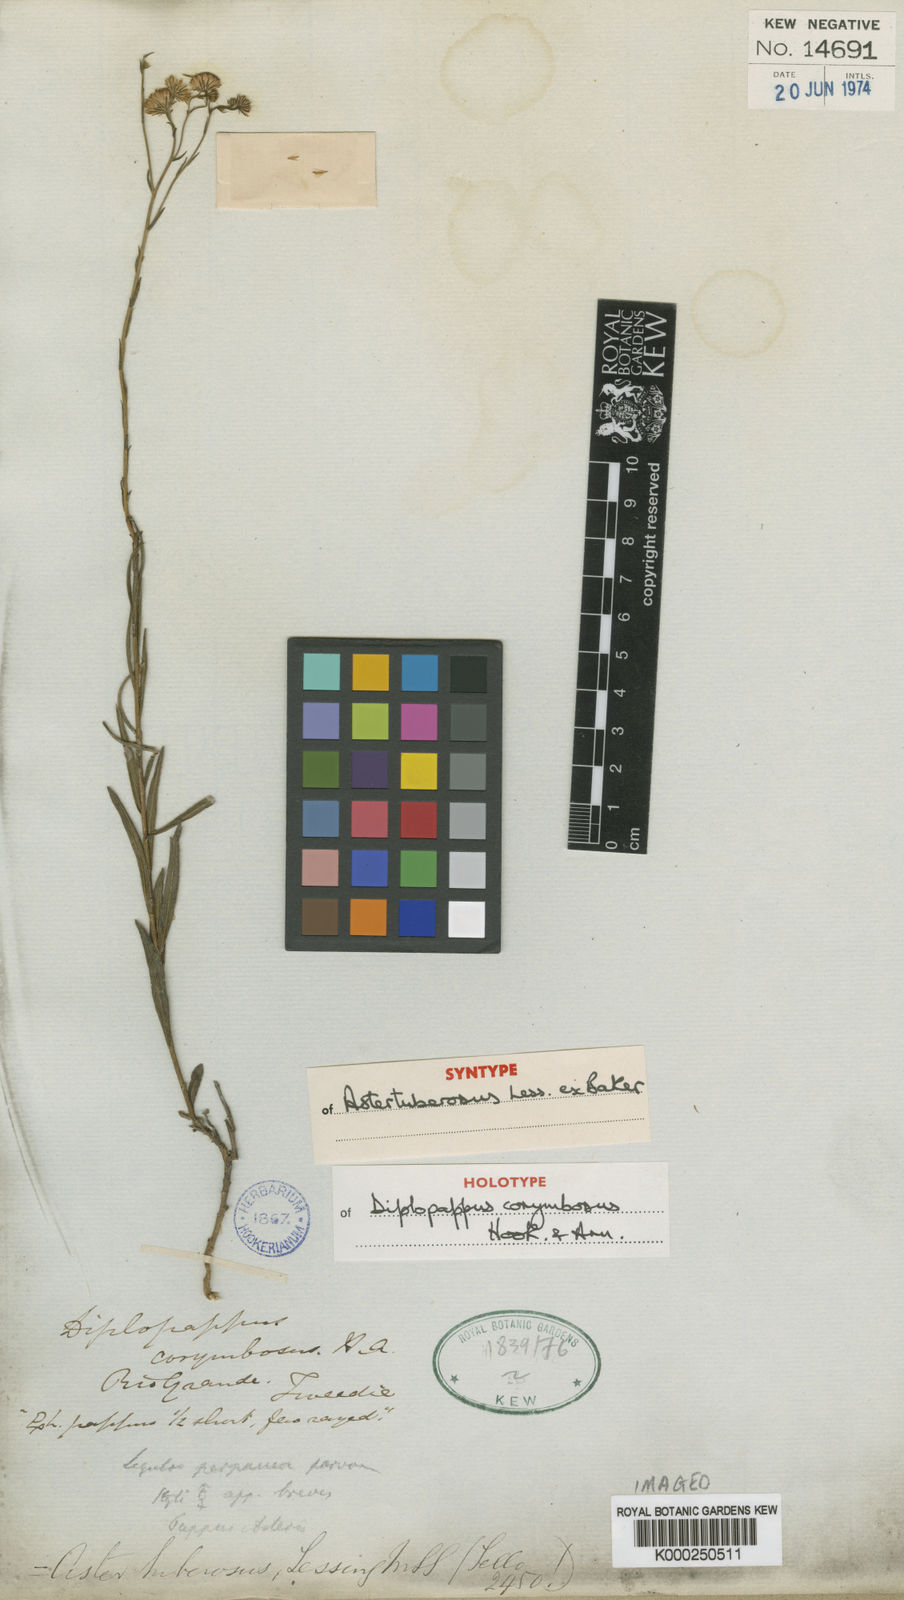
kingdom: Plantae
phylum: Tracheophyta
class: Magnoliopsida
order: Asterales
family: Asteraceae
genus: Apopyros
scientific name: Apopyros corymbosus
